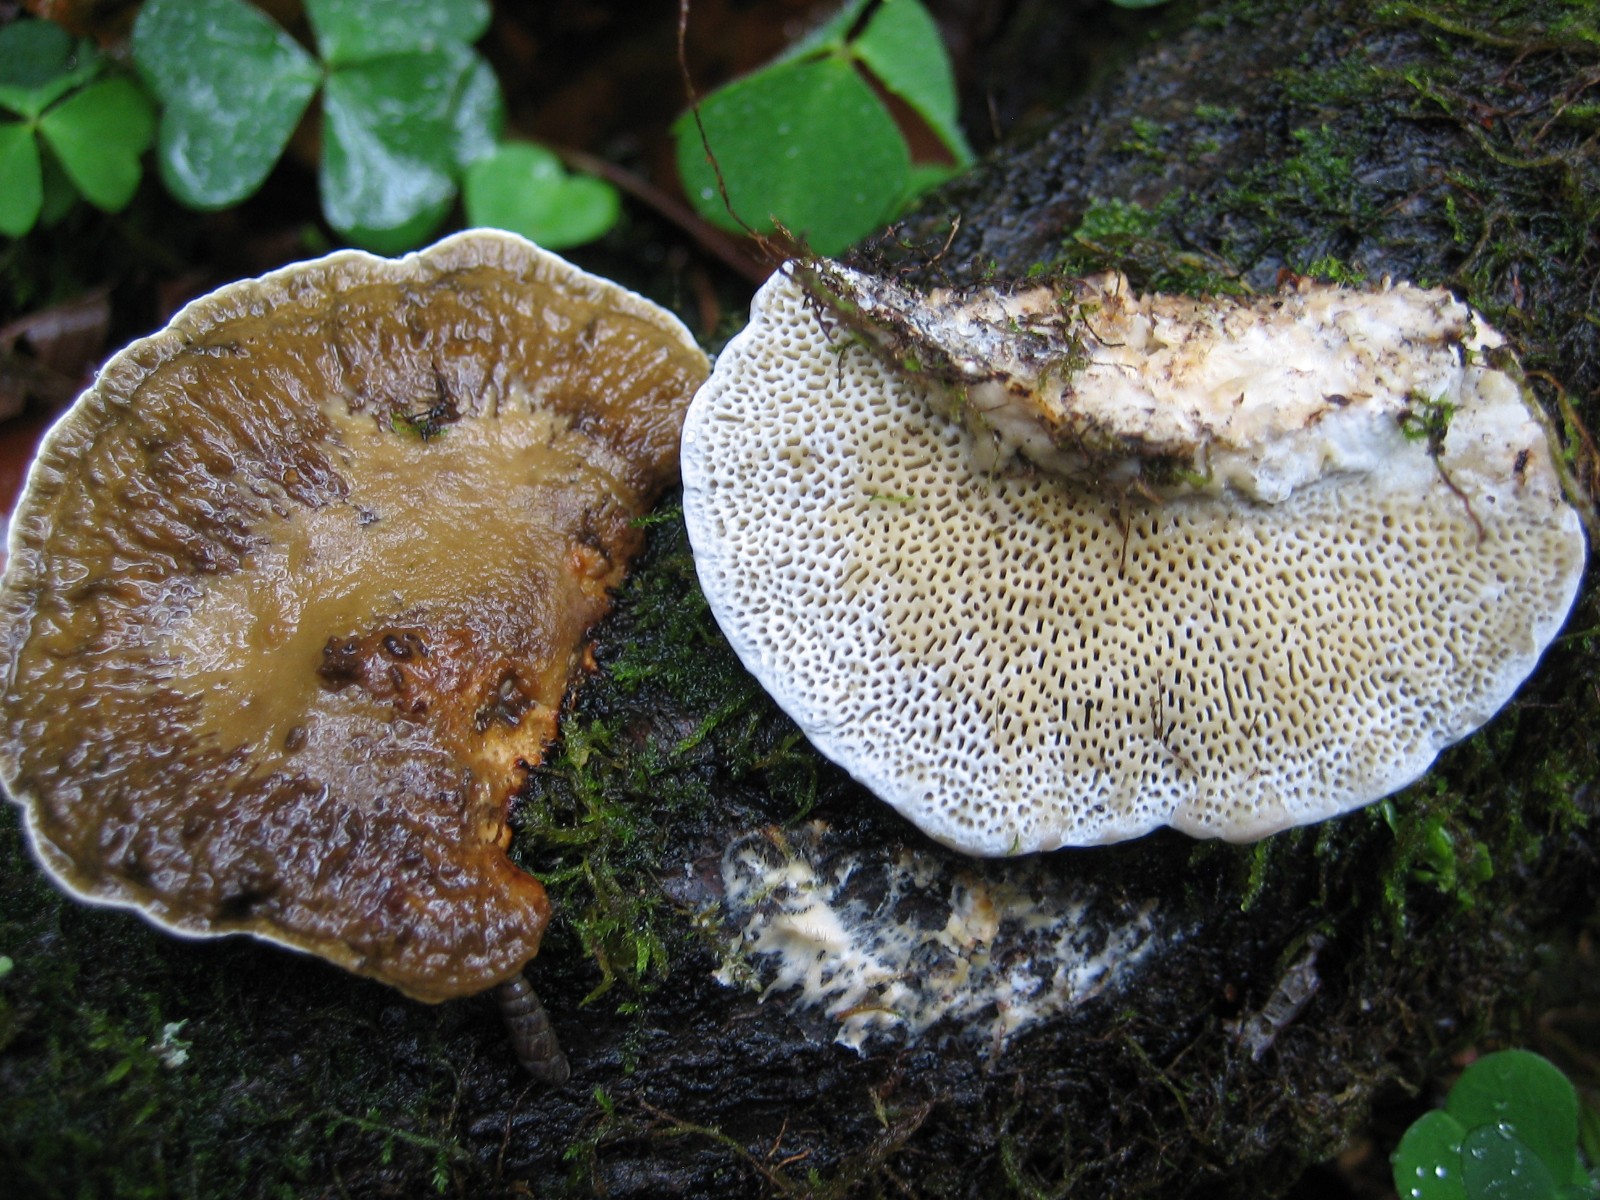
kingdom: Fungi
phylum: Basidiomycota
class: Agaricomycetes
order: Polyporales
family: Polyporaceae
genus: Daedaleopsis
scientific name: Daedaleopsis confragosa
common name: rødmende læderporesvamp
